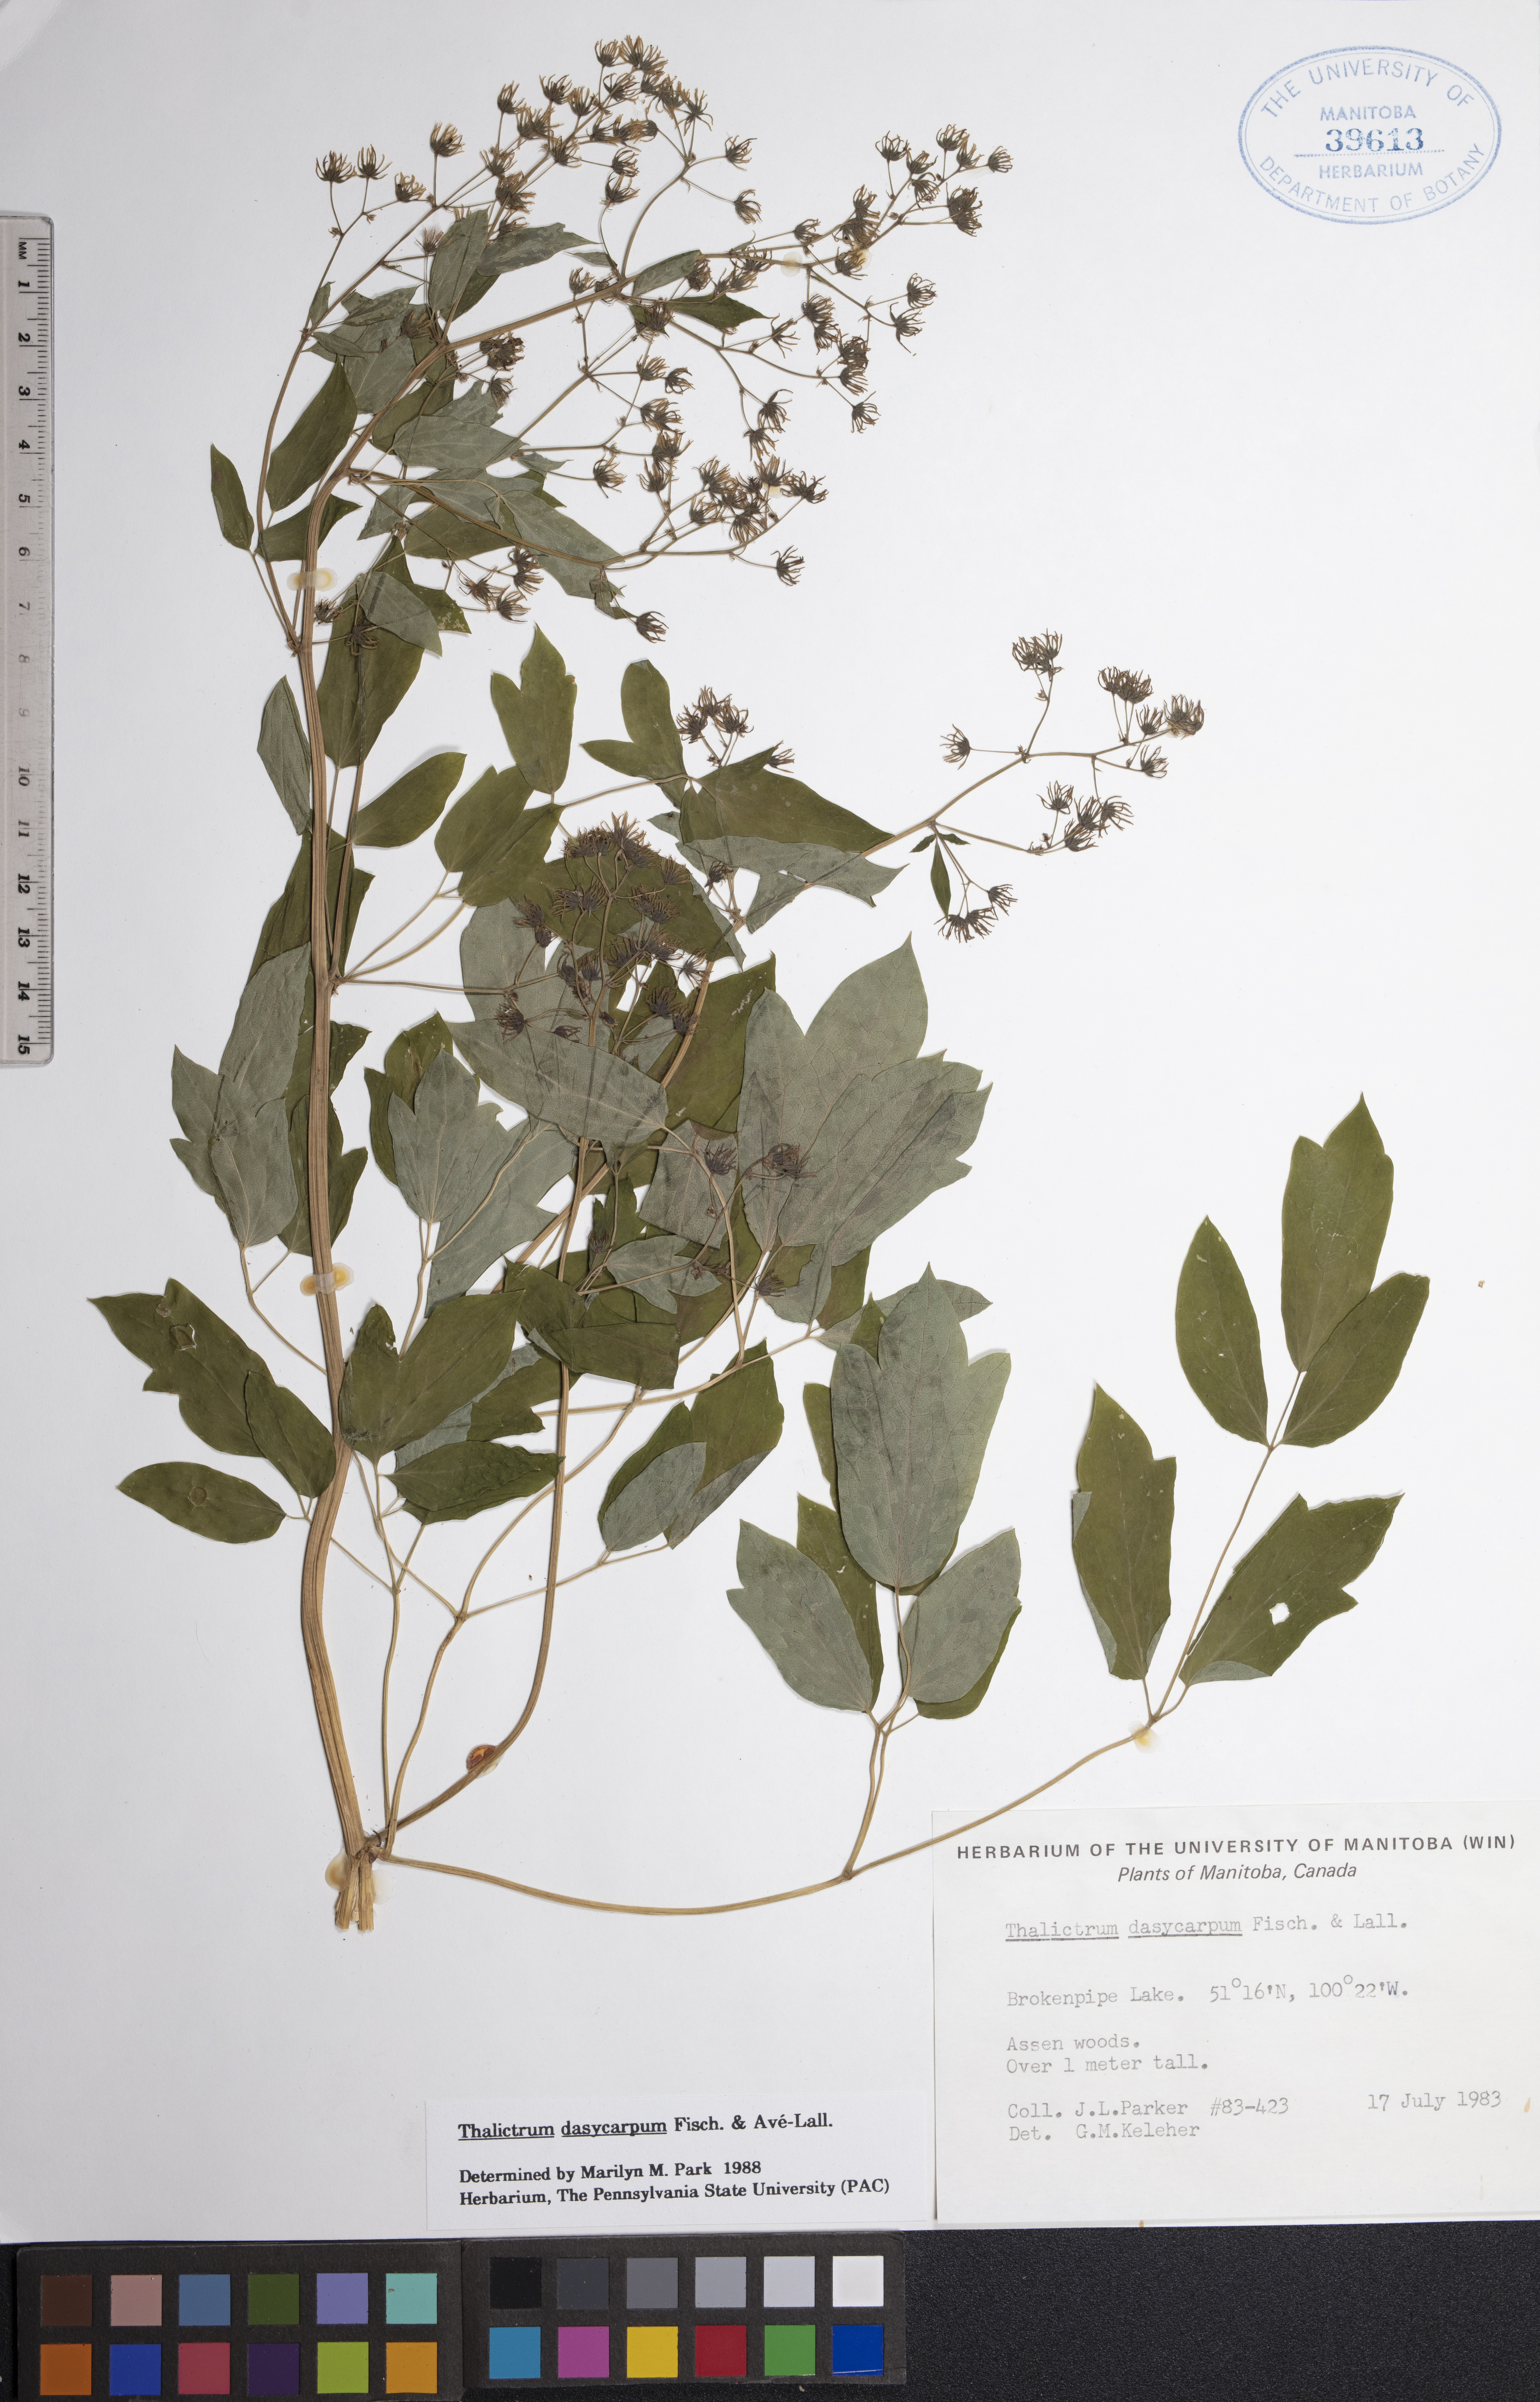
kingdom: Plantae
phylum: Tracheophyta
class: Magnoliopsida
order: Ranunculales
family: Ranunculaceae
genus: Thalictrum
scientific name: Thalictrum dasycarpum
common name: Purple meadow-rue
